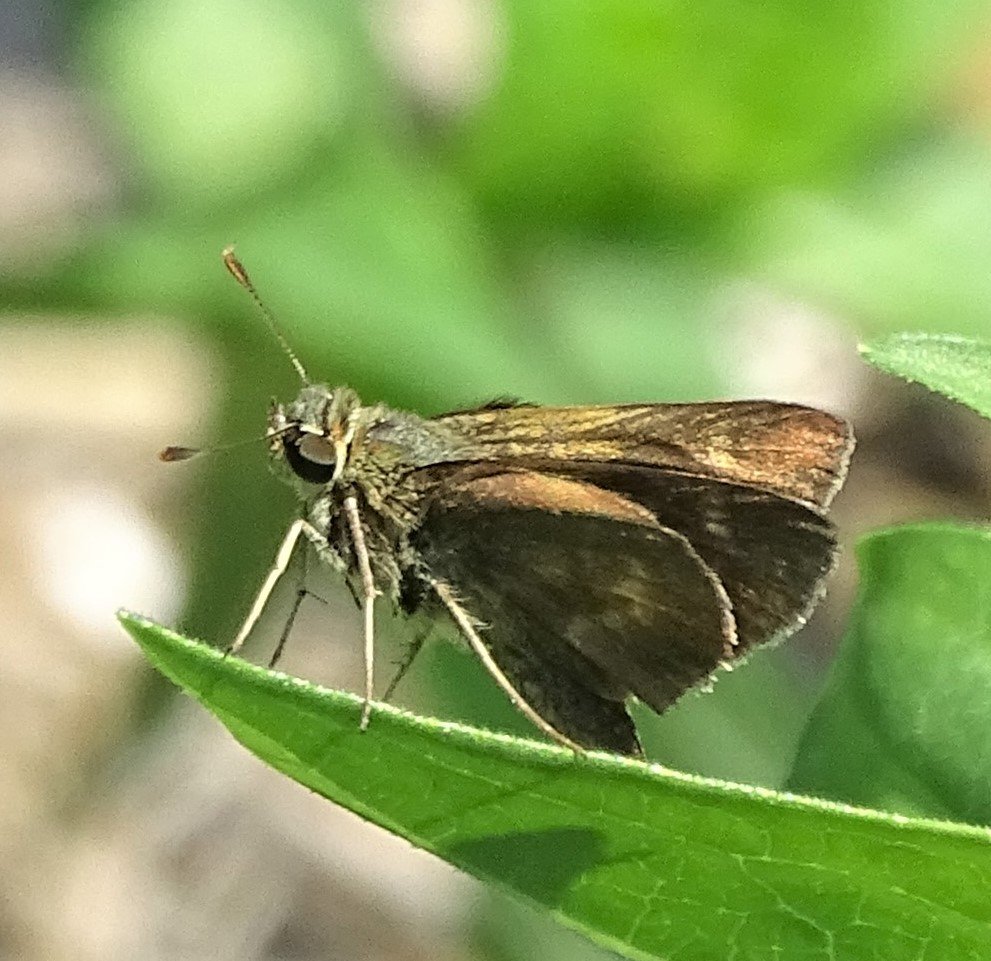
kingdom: Animalia
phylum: Arthropoda
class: Insecta
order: Lepidoptera
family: Hesperiidae
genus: Polites
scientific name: Polites egeremet
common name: Northern Broken-Dash
